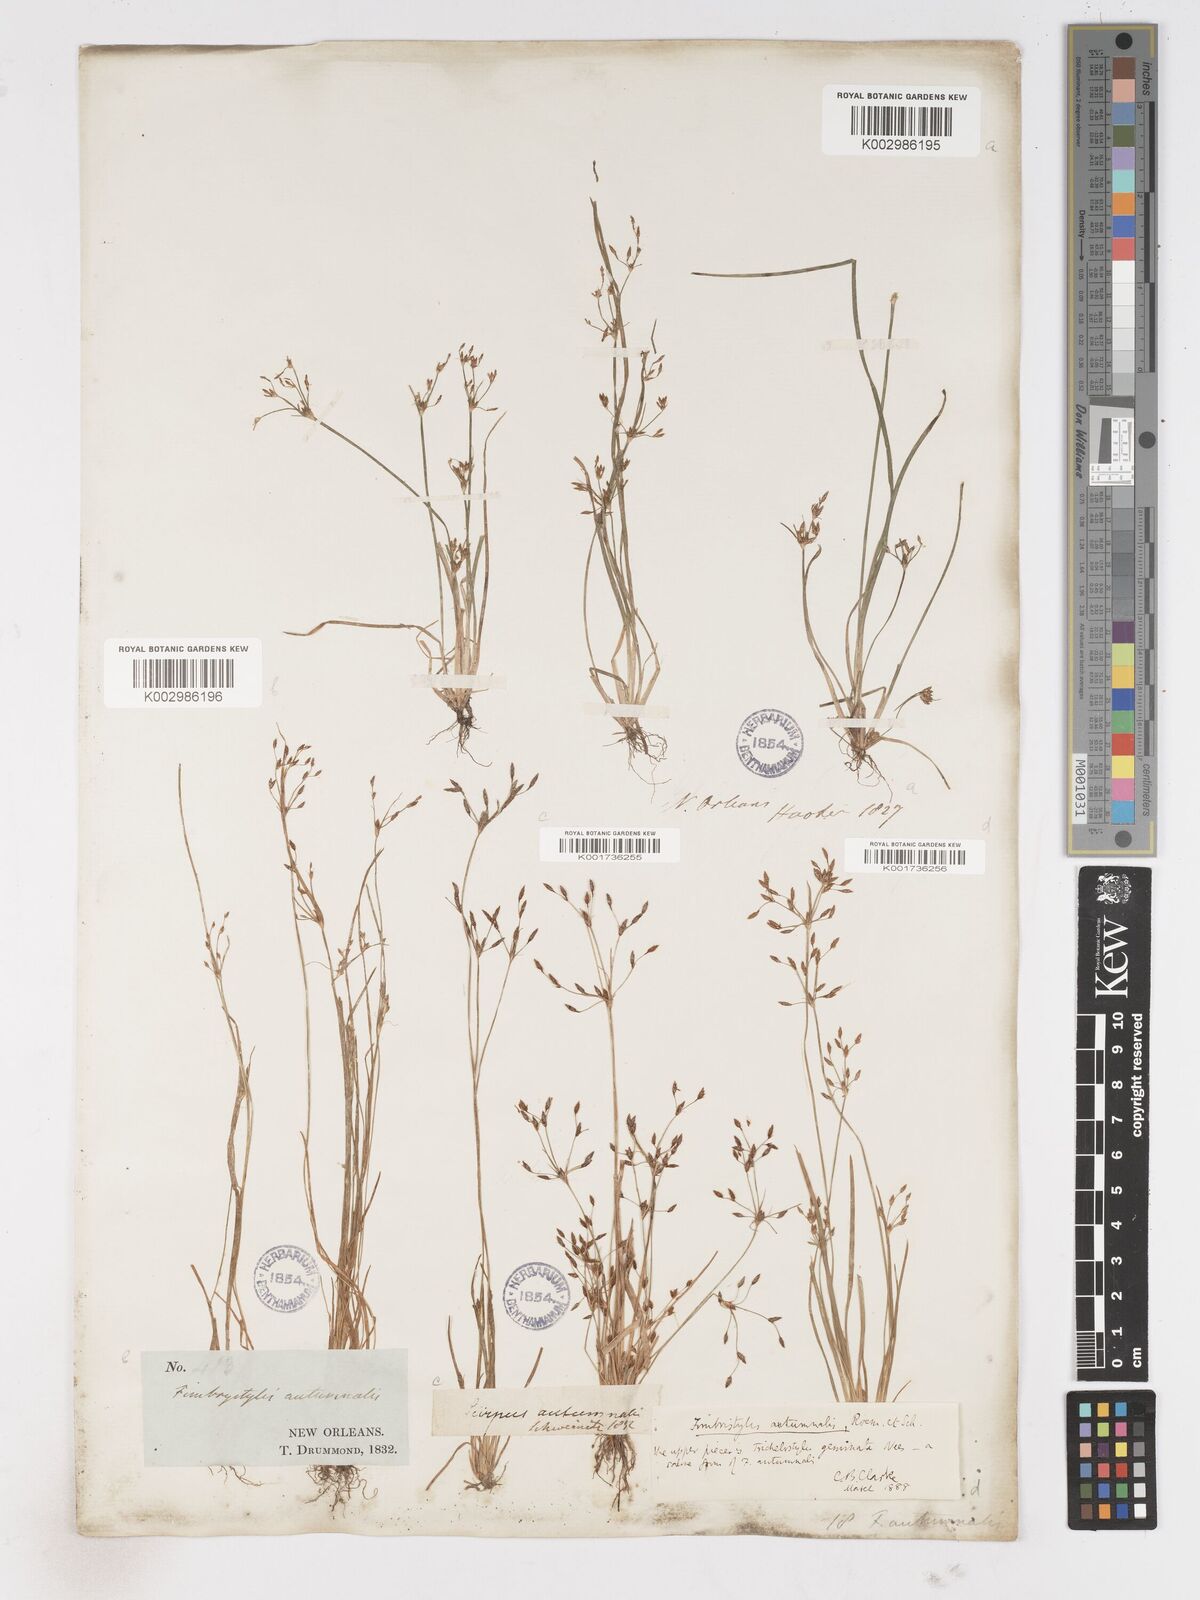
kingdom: Plantae
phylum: Tracheophyta
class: Liliopsida
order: Poales
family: Cyperaceae
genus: Fimbristylis
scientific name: Fimbristylis autumnalis
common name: Slender fimbristylis
